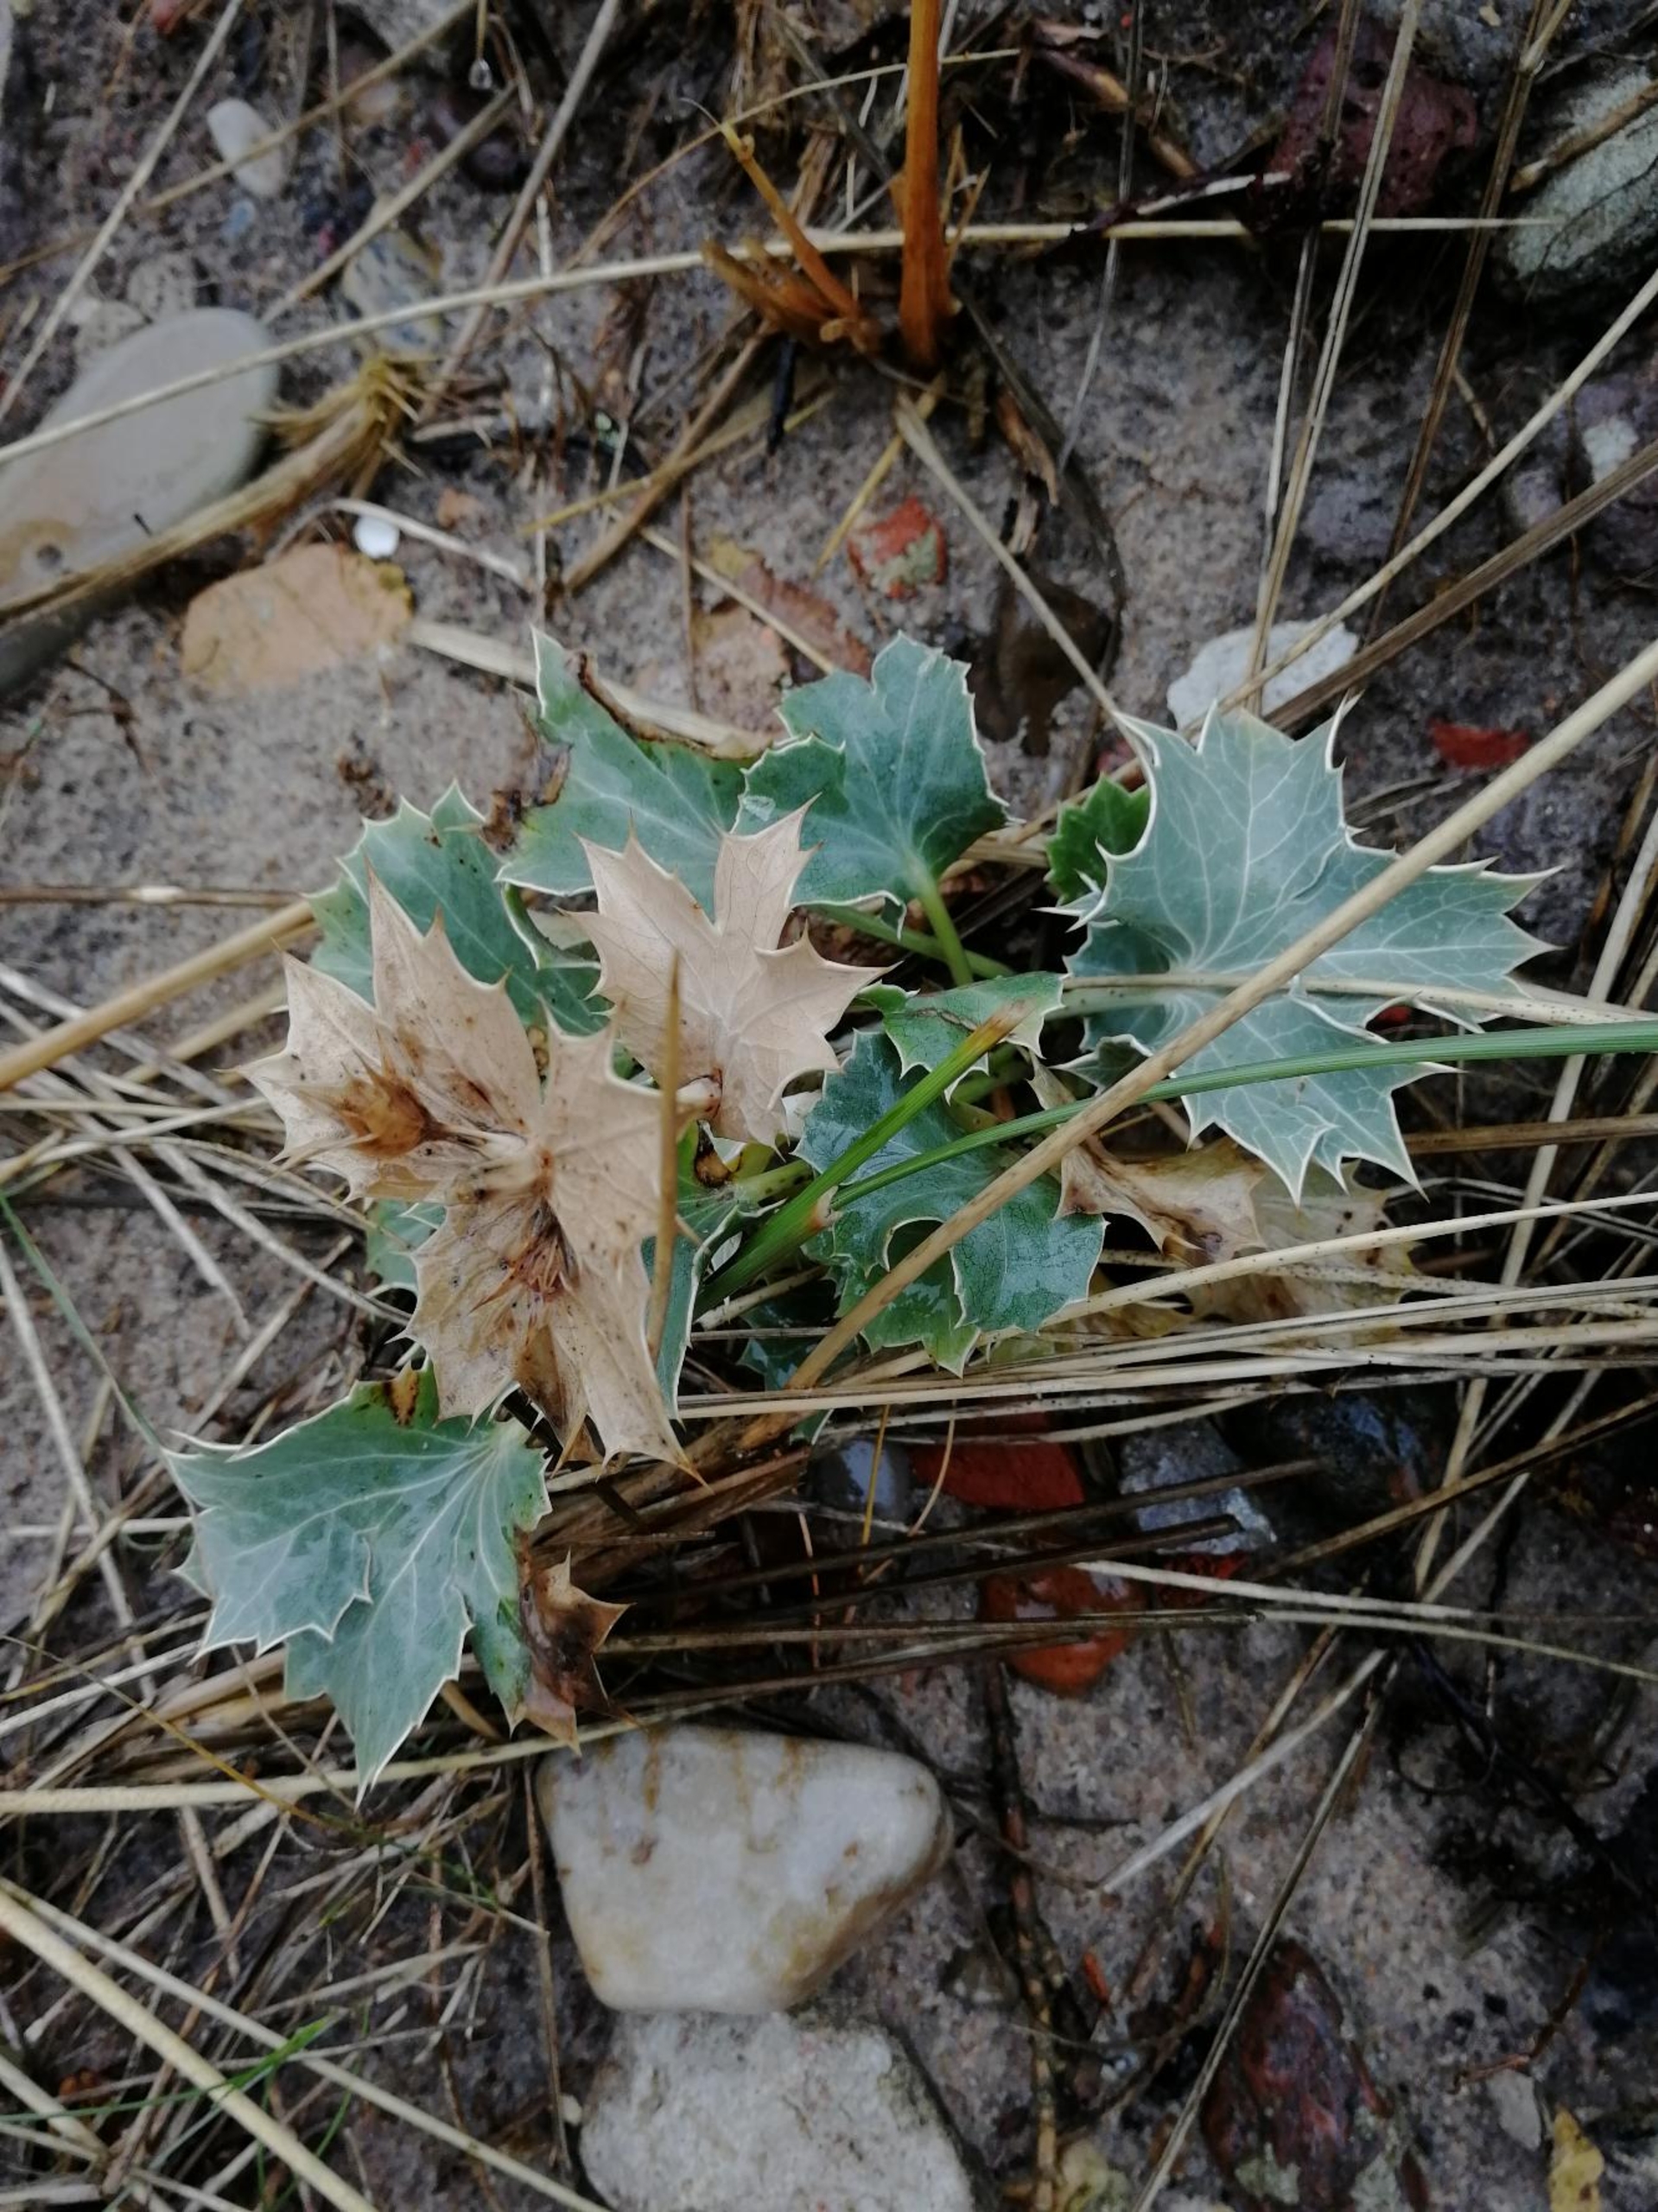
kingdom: Plantae
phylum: Tracheophyta
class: Magnoliopsida
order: Apiales
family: Apiaceae
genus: Eryngium
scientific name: Eryngium maritimum
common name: Strand-mandstro
